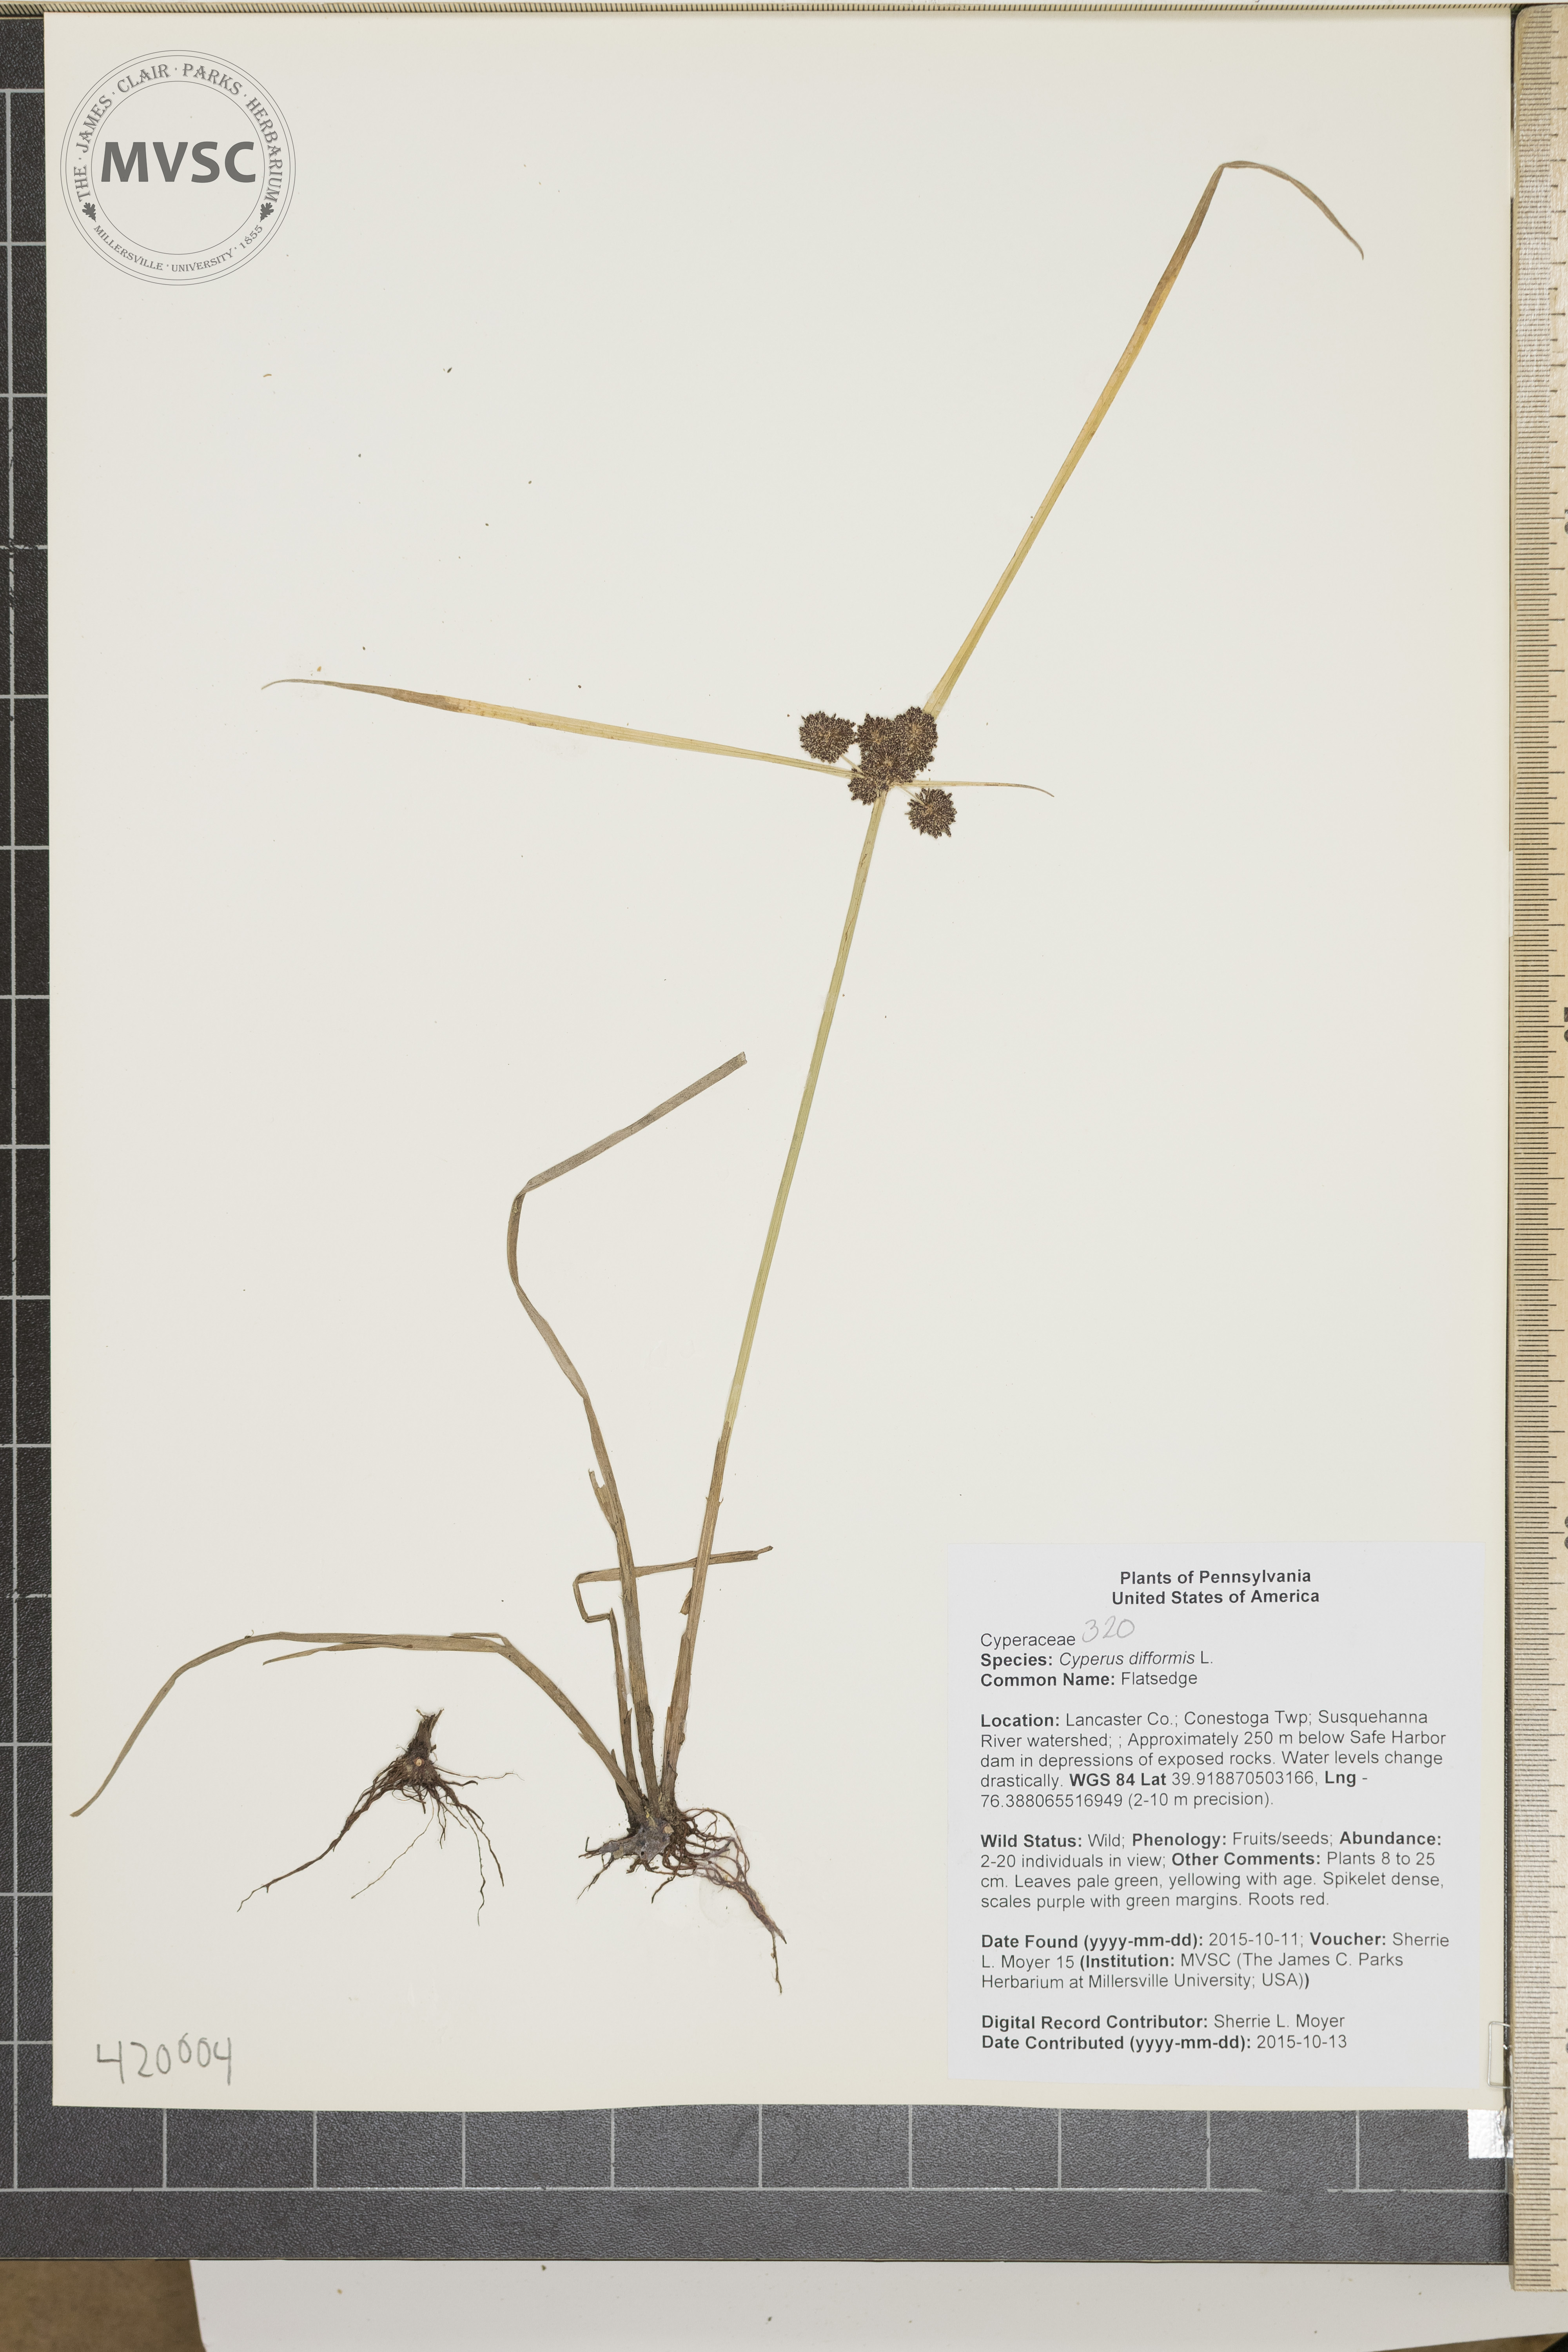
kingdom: Plantae
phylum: Tracheophyta
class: Liliopsida
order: Poales
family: Cyperaceae
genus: Cyperus
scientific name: Cyperus difformis
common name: Flatsedge
